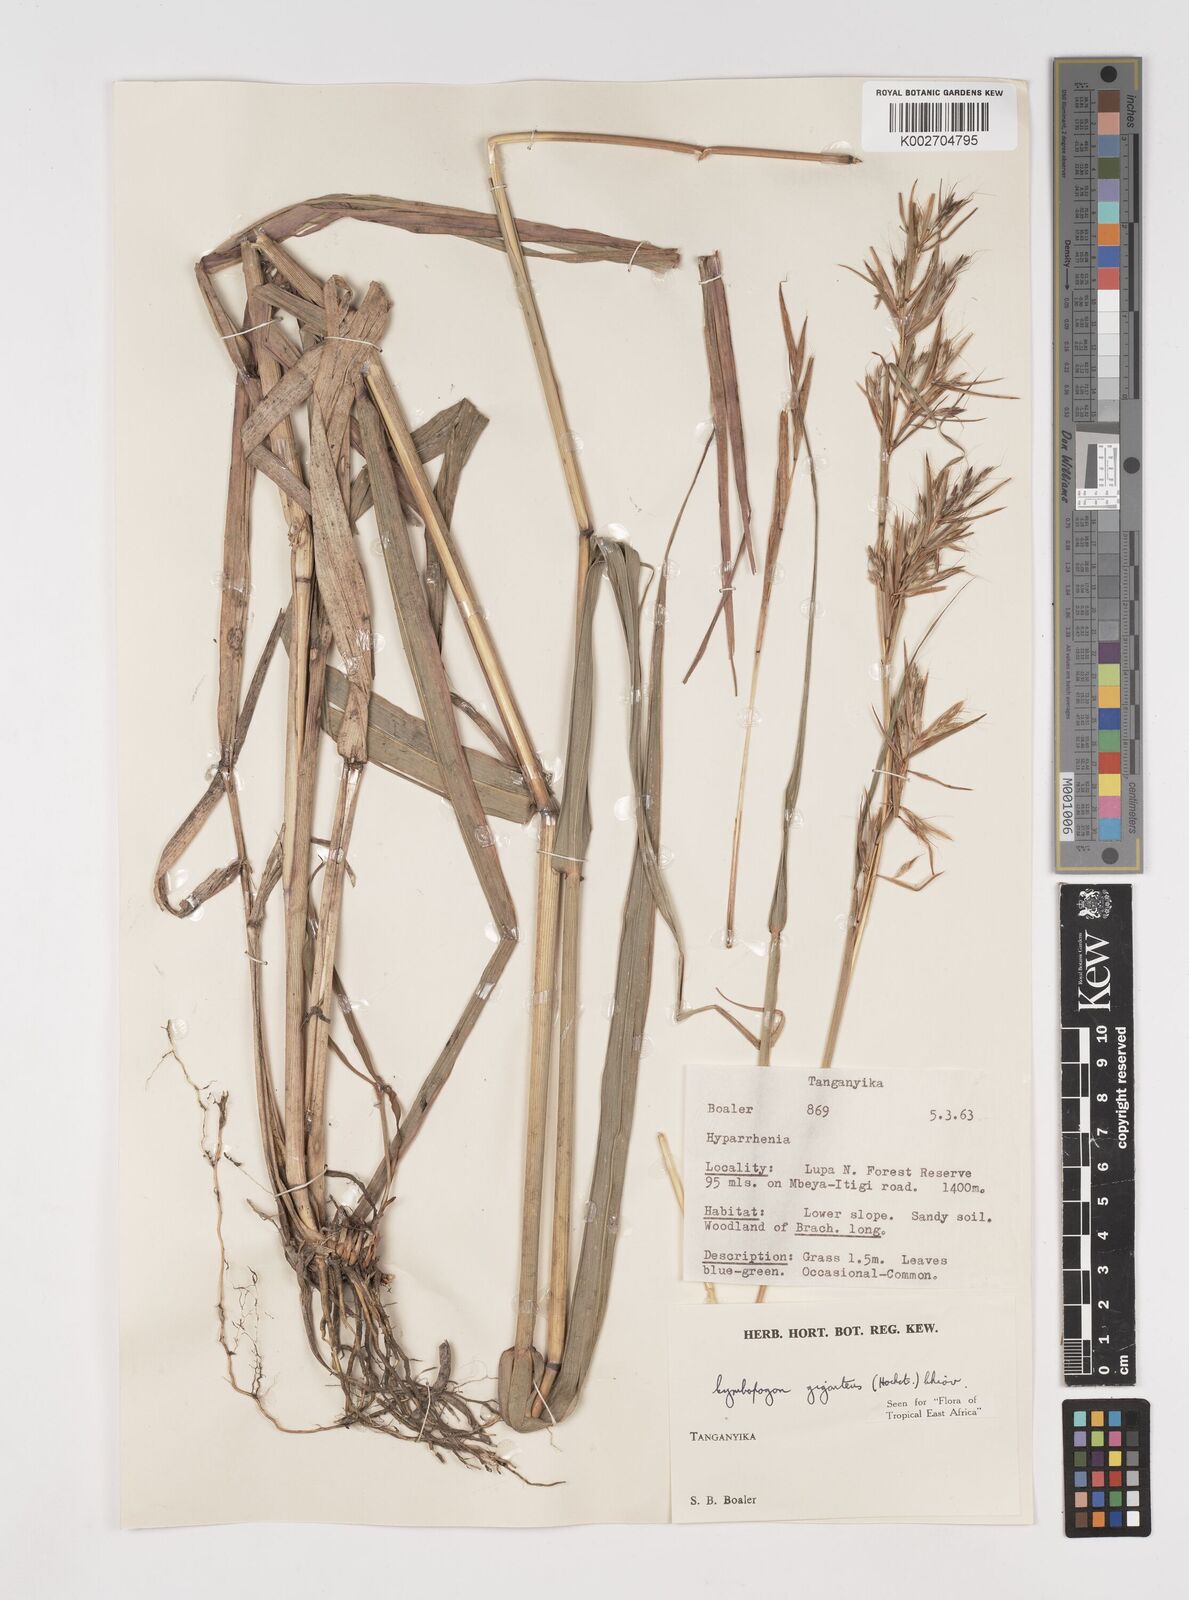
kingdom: Plantae
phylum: Tracheophyta
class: Liliopsida
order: Poales
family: Poaceae
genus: Cymbopogon
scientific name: Cymbopogon giganteus
